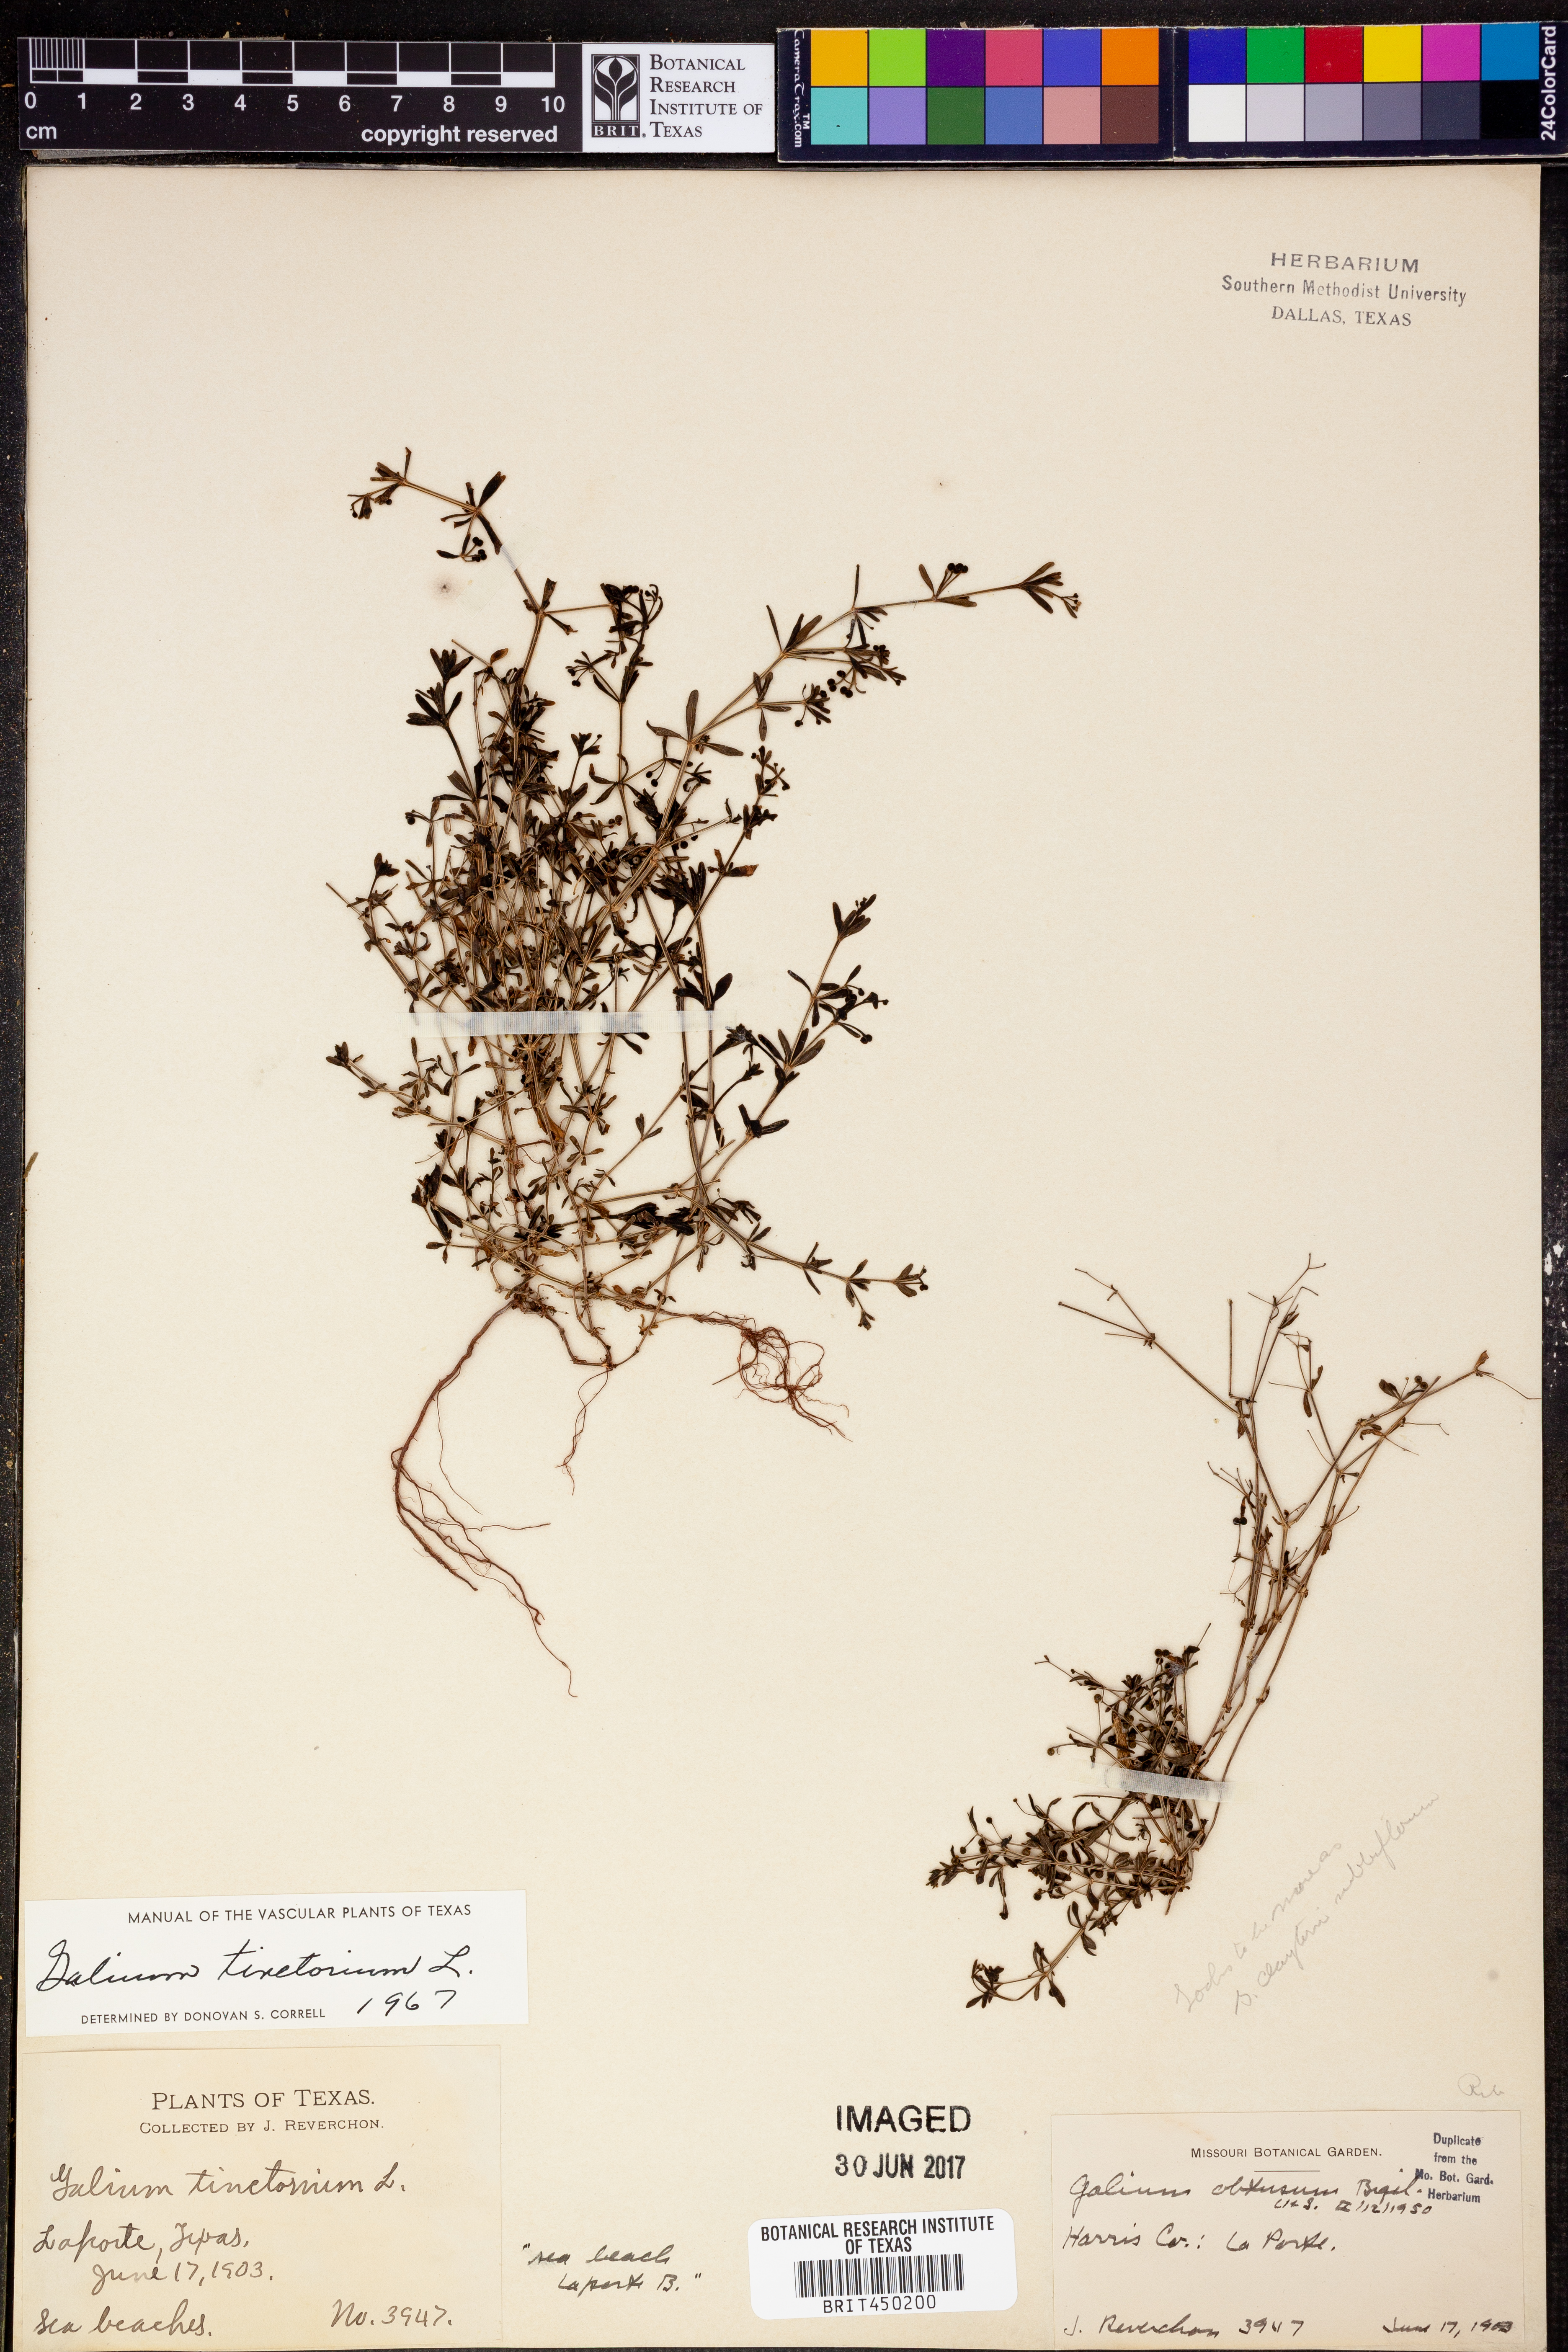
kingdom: Plantae
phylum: Tracheophyta
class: Magnoliopsida
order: Gentianales
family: Rubiaceae
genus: Asperula
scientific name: Asperula tinctoria
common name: Dyer's woodruff
